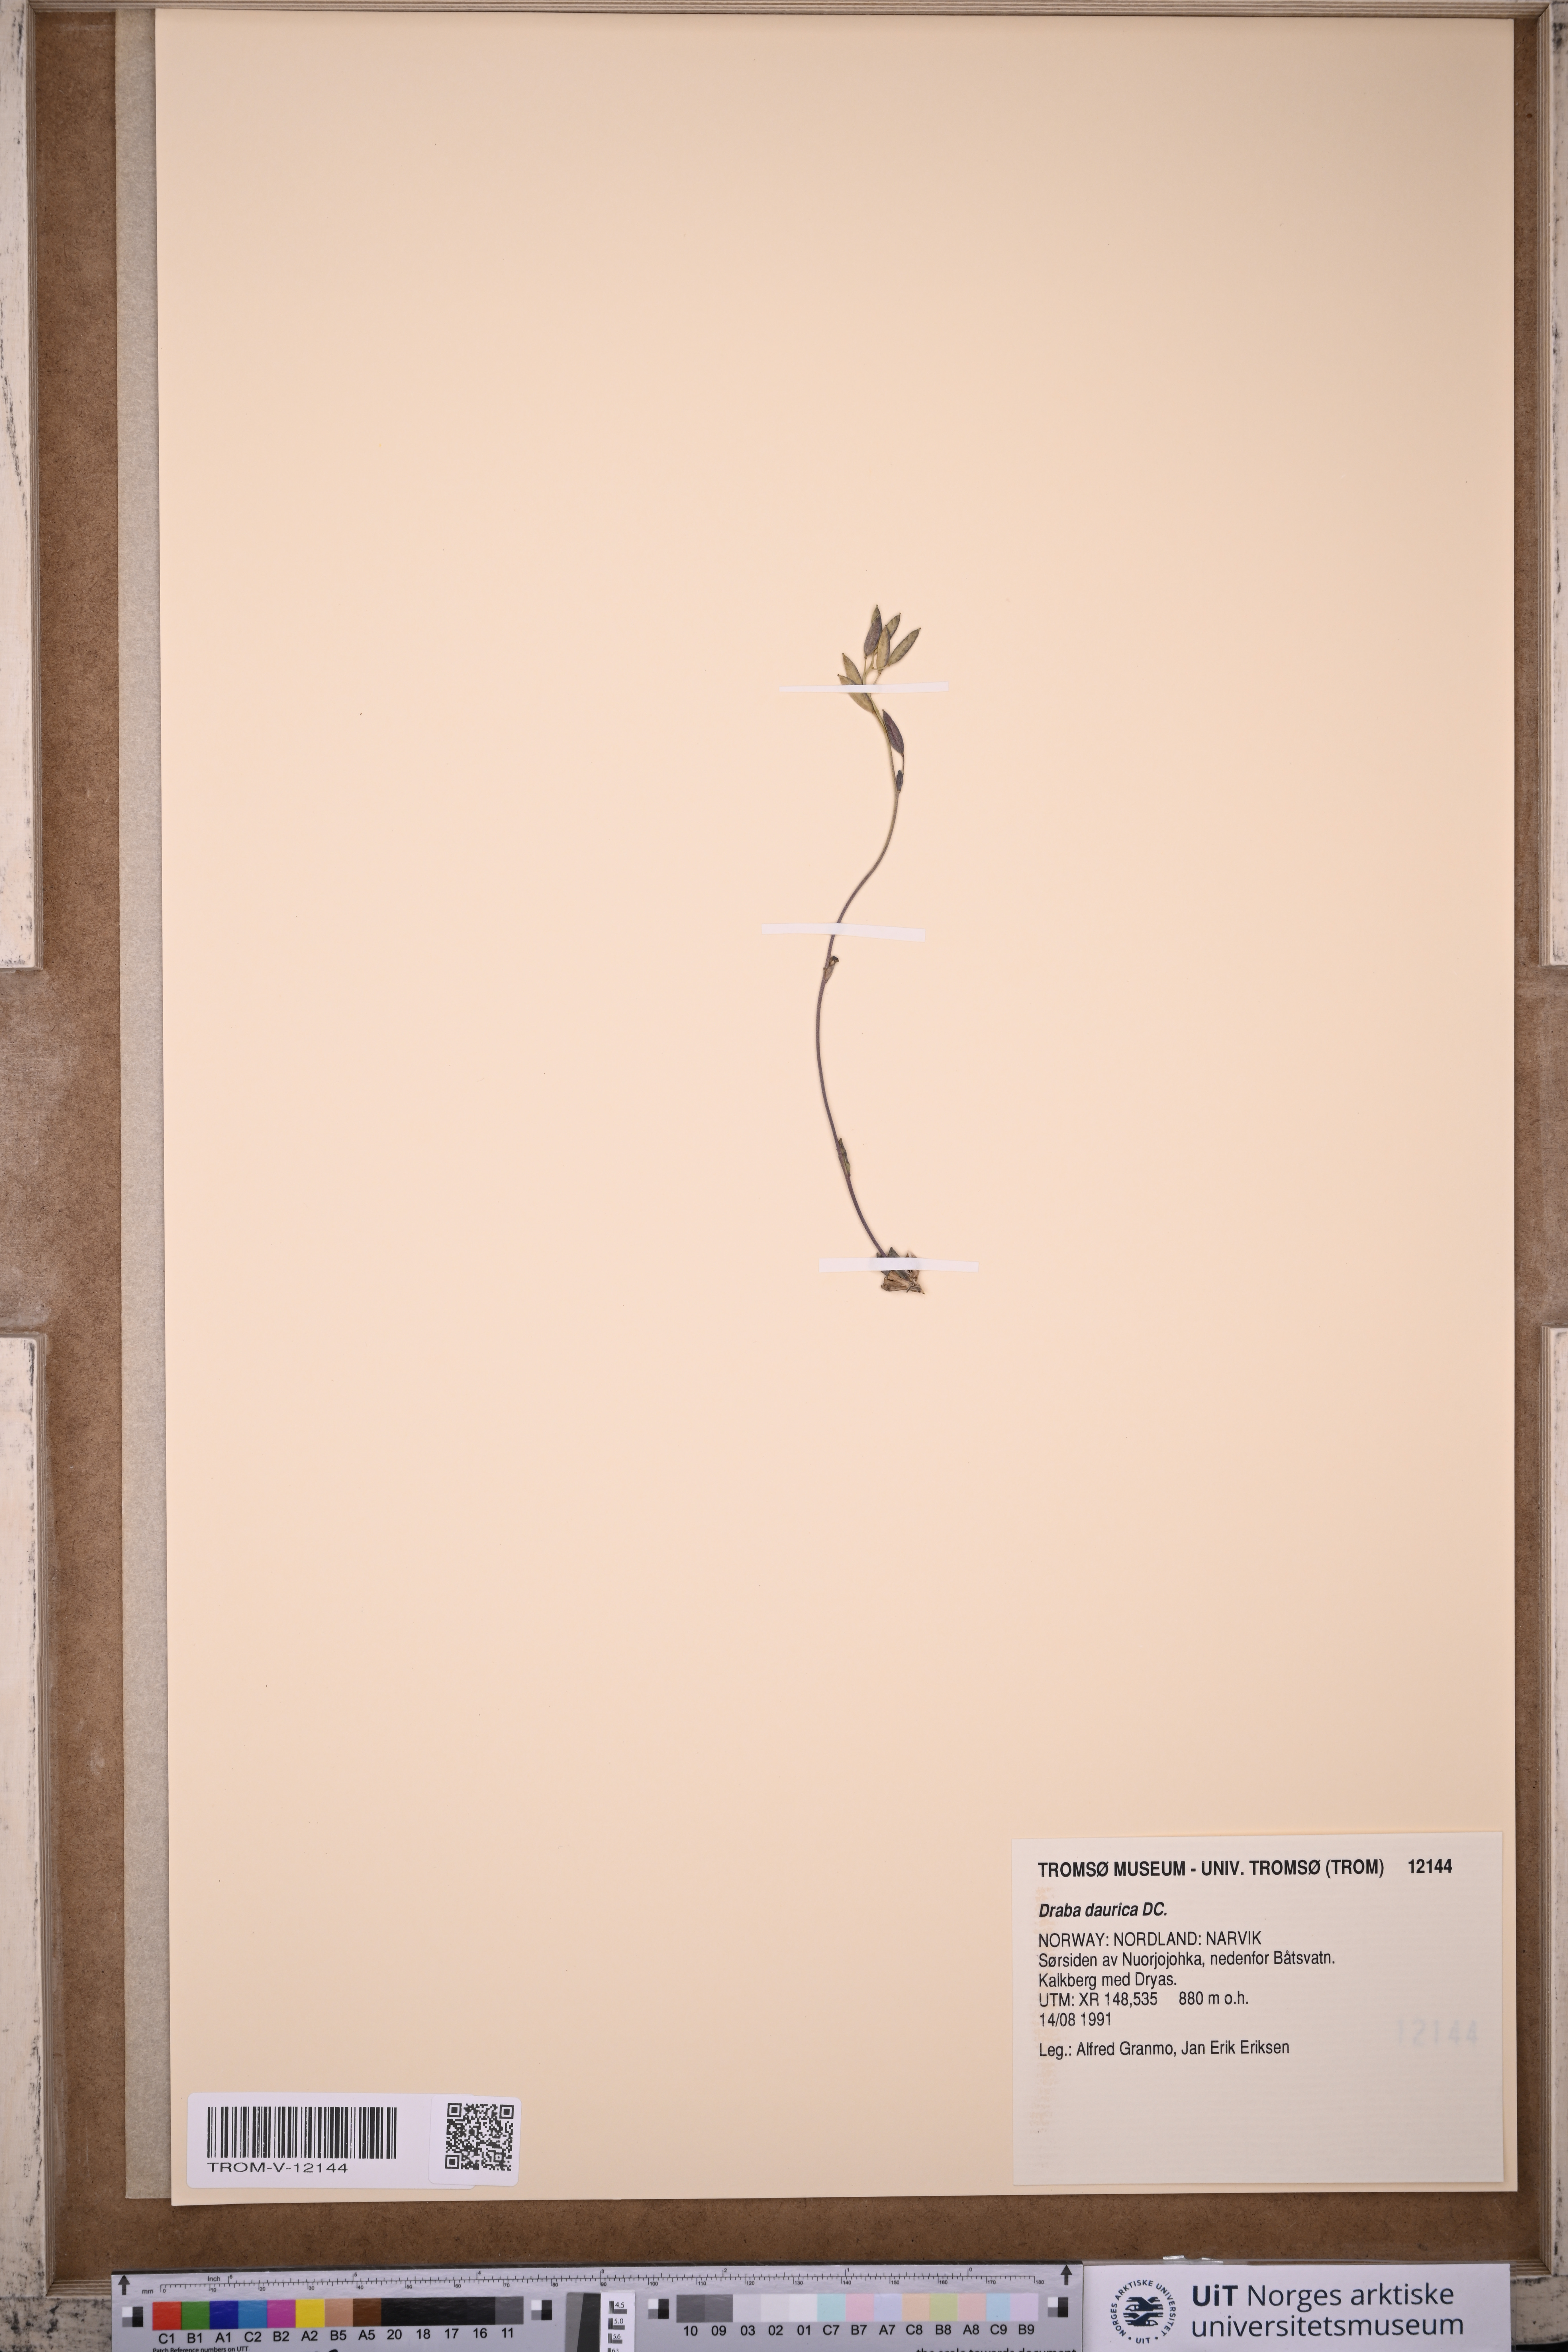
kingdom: Plantae
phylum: Tracheophyta
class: Magnoliopsida
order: Brassicales
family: Brassicaceae
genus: Draba
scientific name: Draba glabella
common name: Glaucous draba
